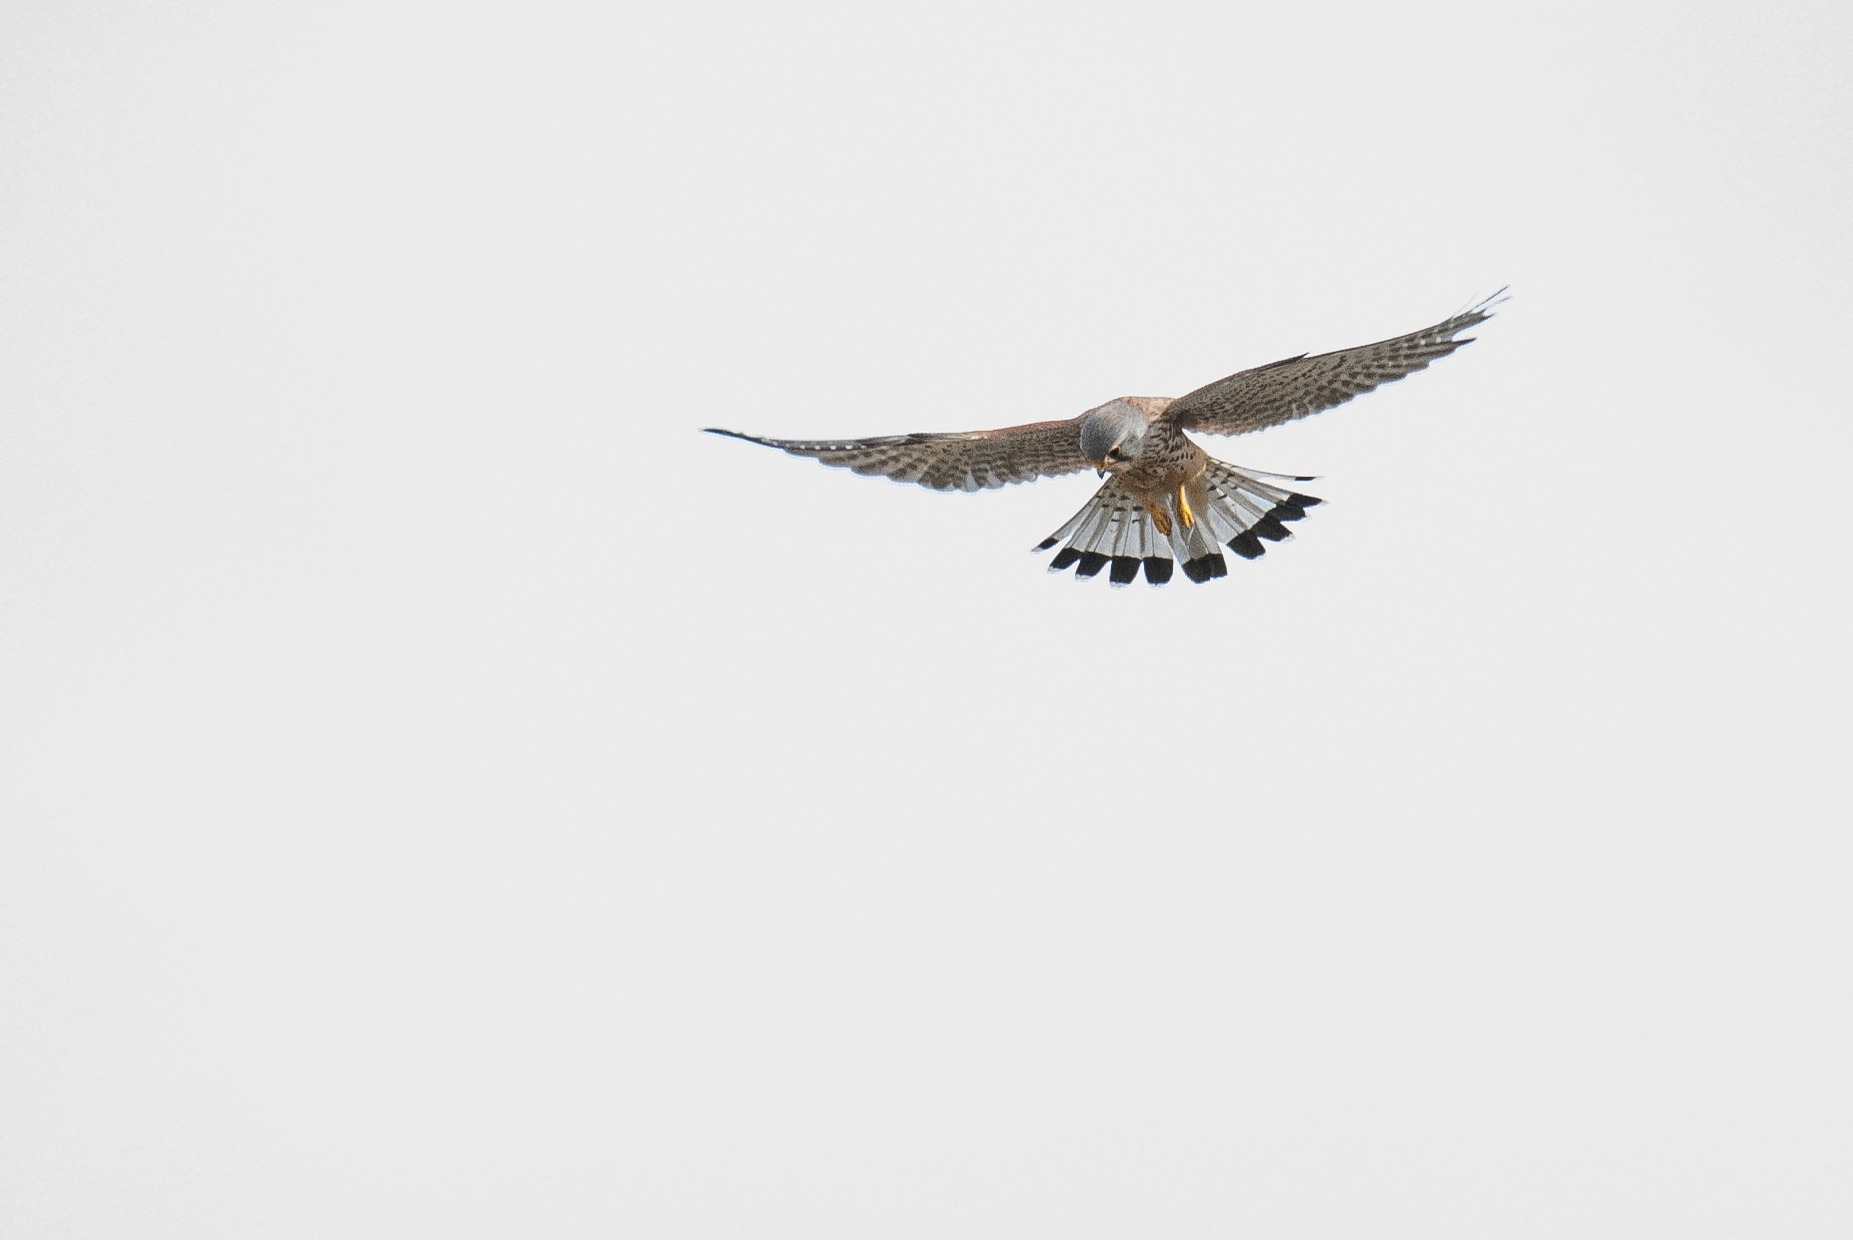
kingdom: Animalia
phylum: Chordata
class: Aves
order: Falconiformes
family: Falconidae
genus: Falco
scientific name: Falco tinnunculus
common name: Tårnfalk
